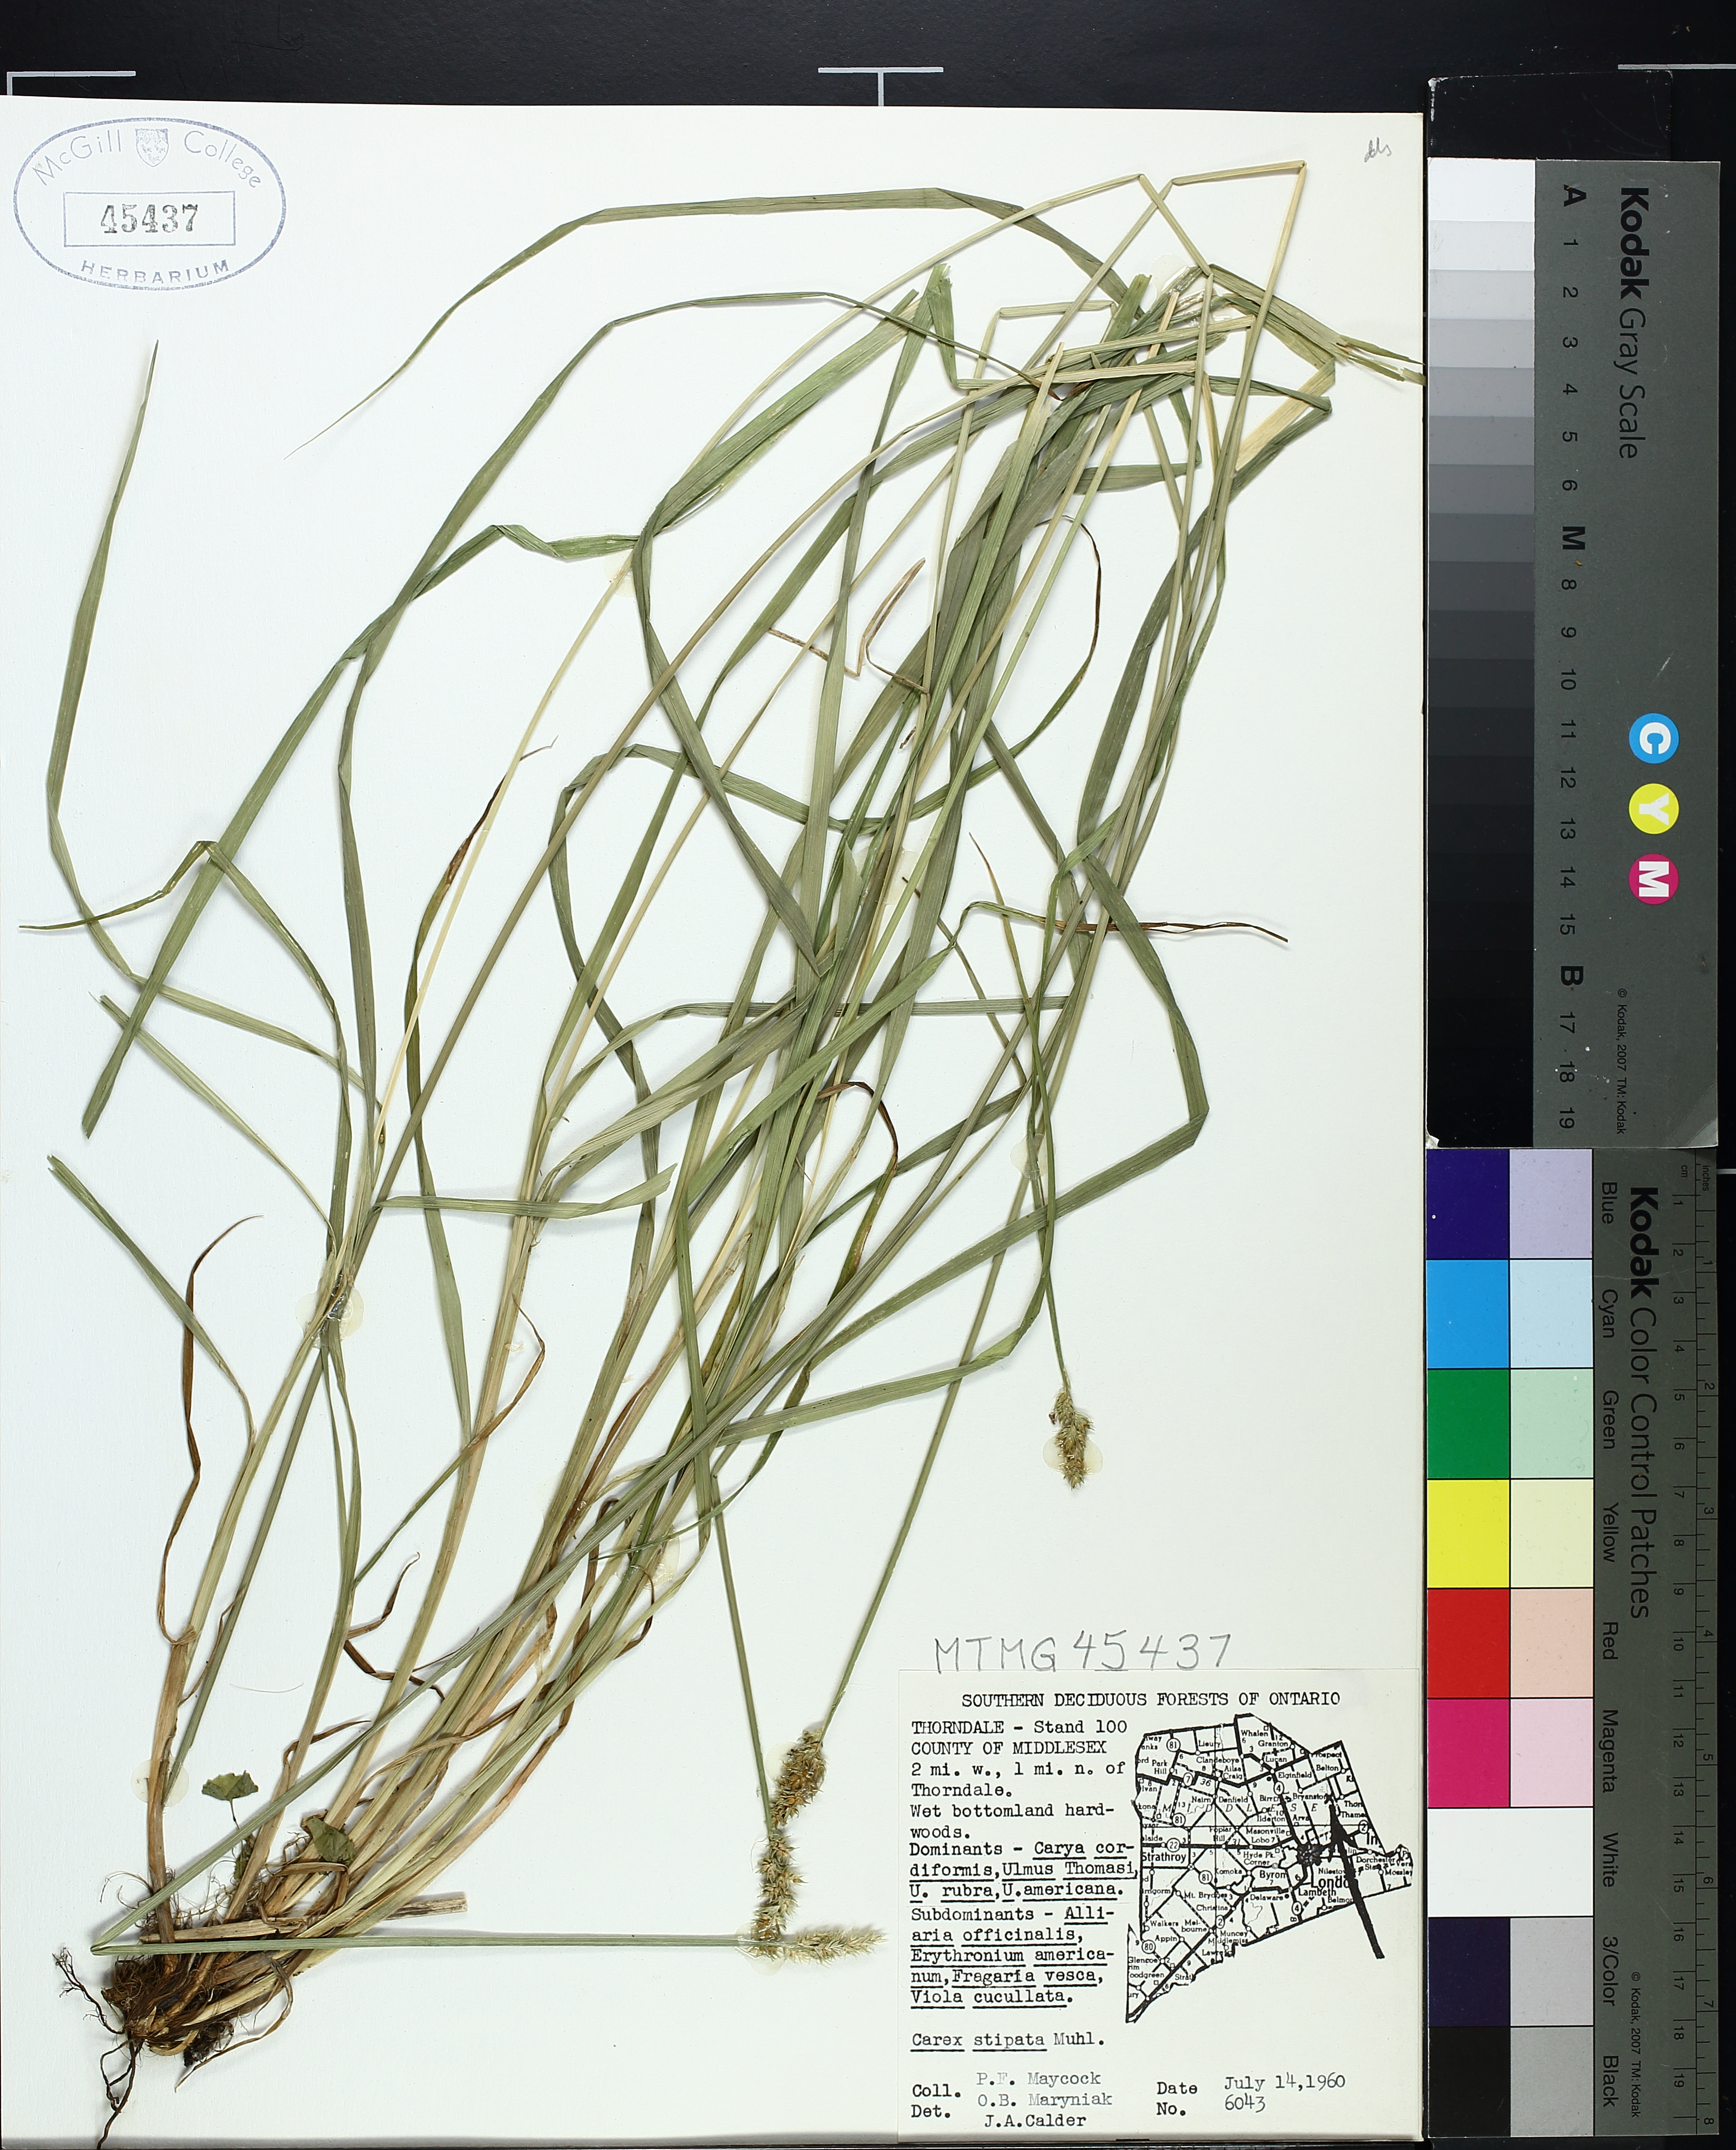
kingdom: Plantae
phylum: Tracheophyta
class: Liliopsida
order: Poales
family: Cyperaceae
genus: Carex
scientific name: Carex stipata
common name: Awl-fruited sedge
